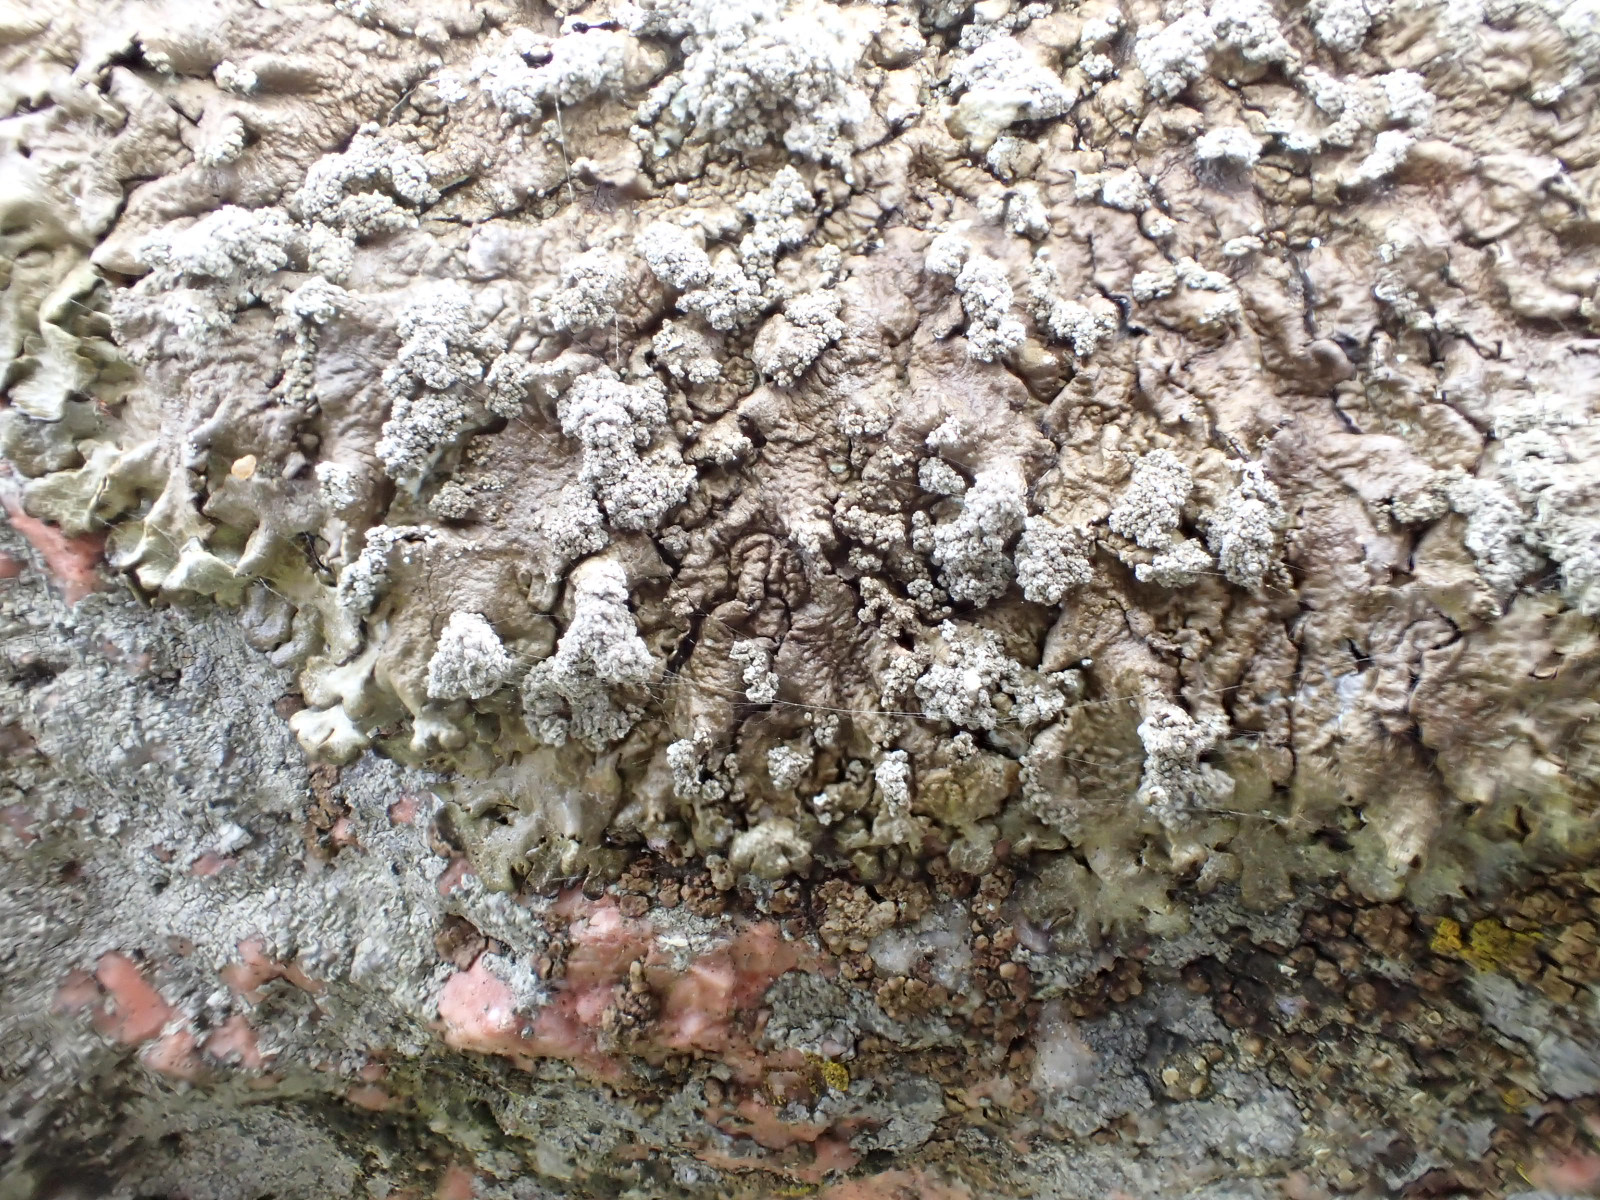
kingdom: Fungi
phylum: Ascomycota
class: Lecanoromycetes
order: Lecanorales
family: Parmeliaceae
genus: Xanthoparmelia
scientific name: Xanthoparmelia loxodes
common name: knudret skållav
